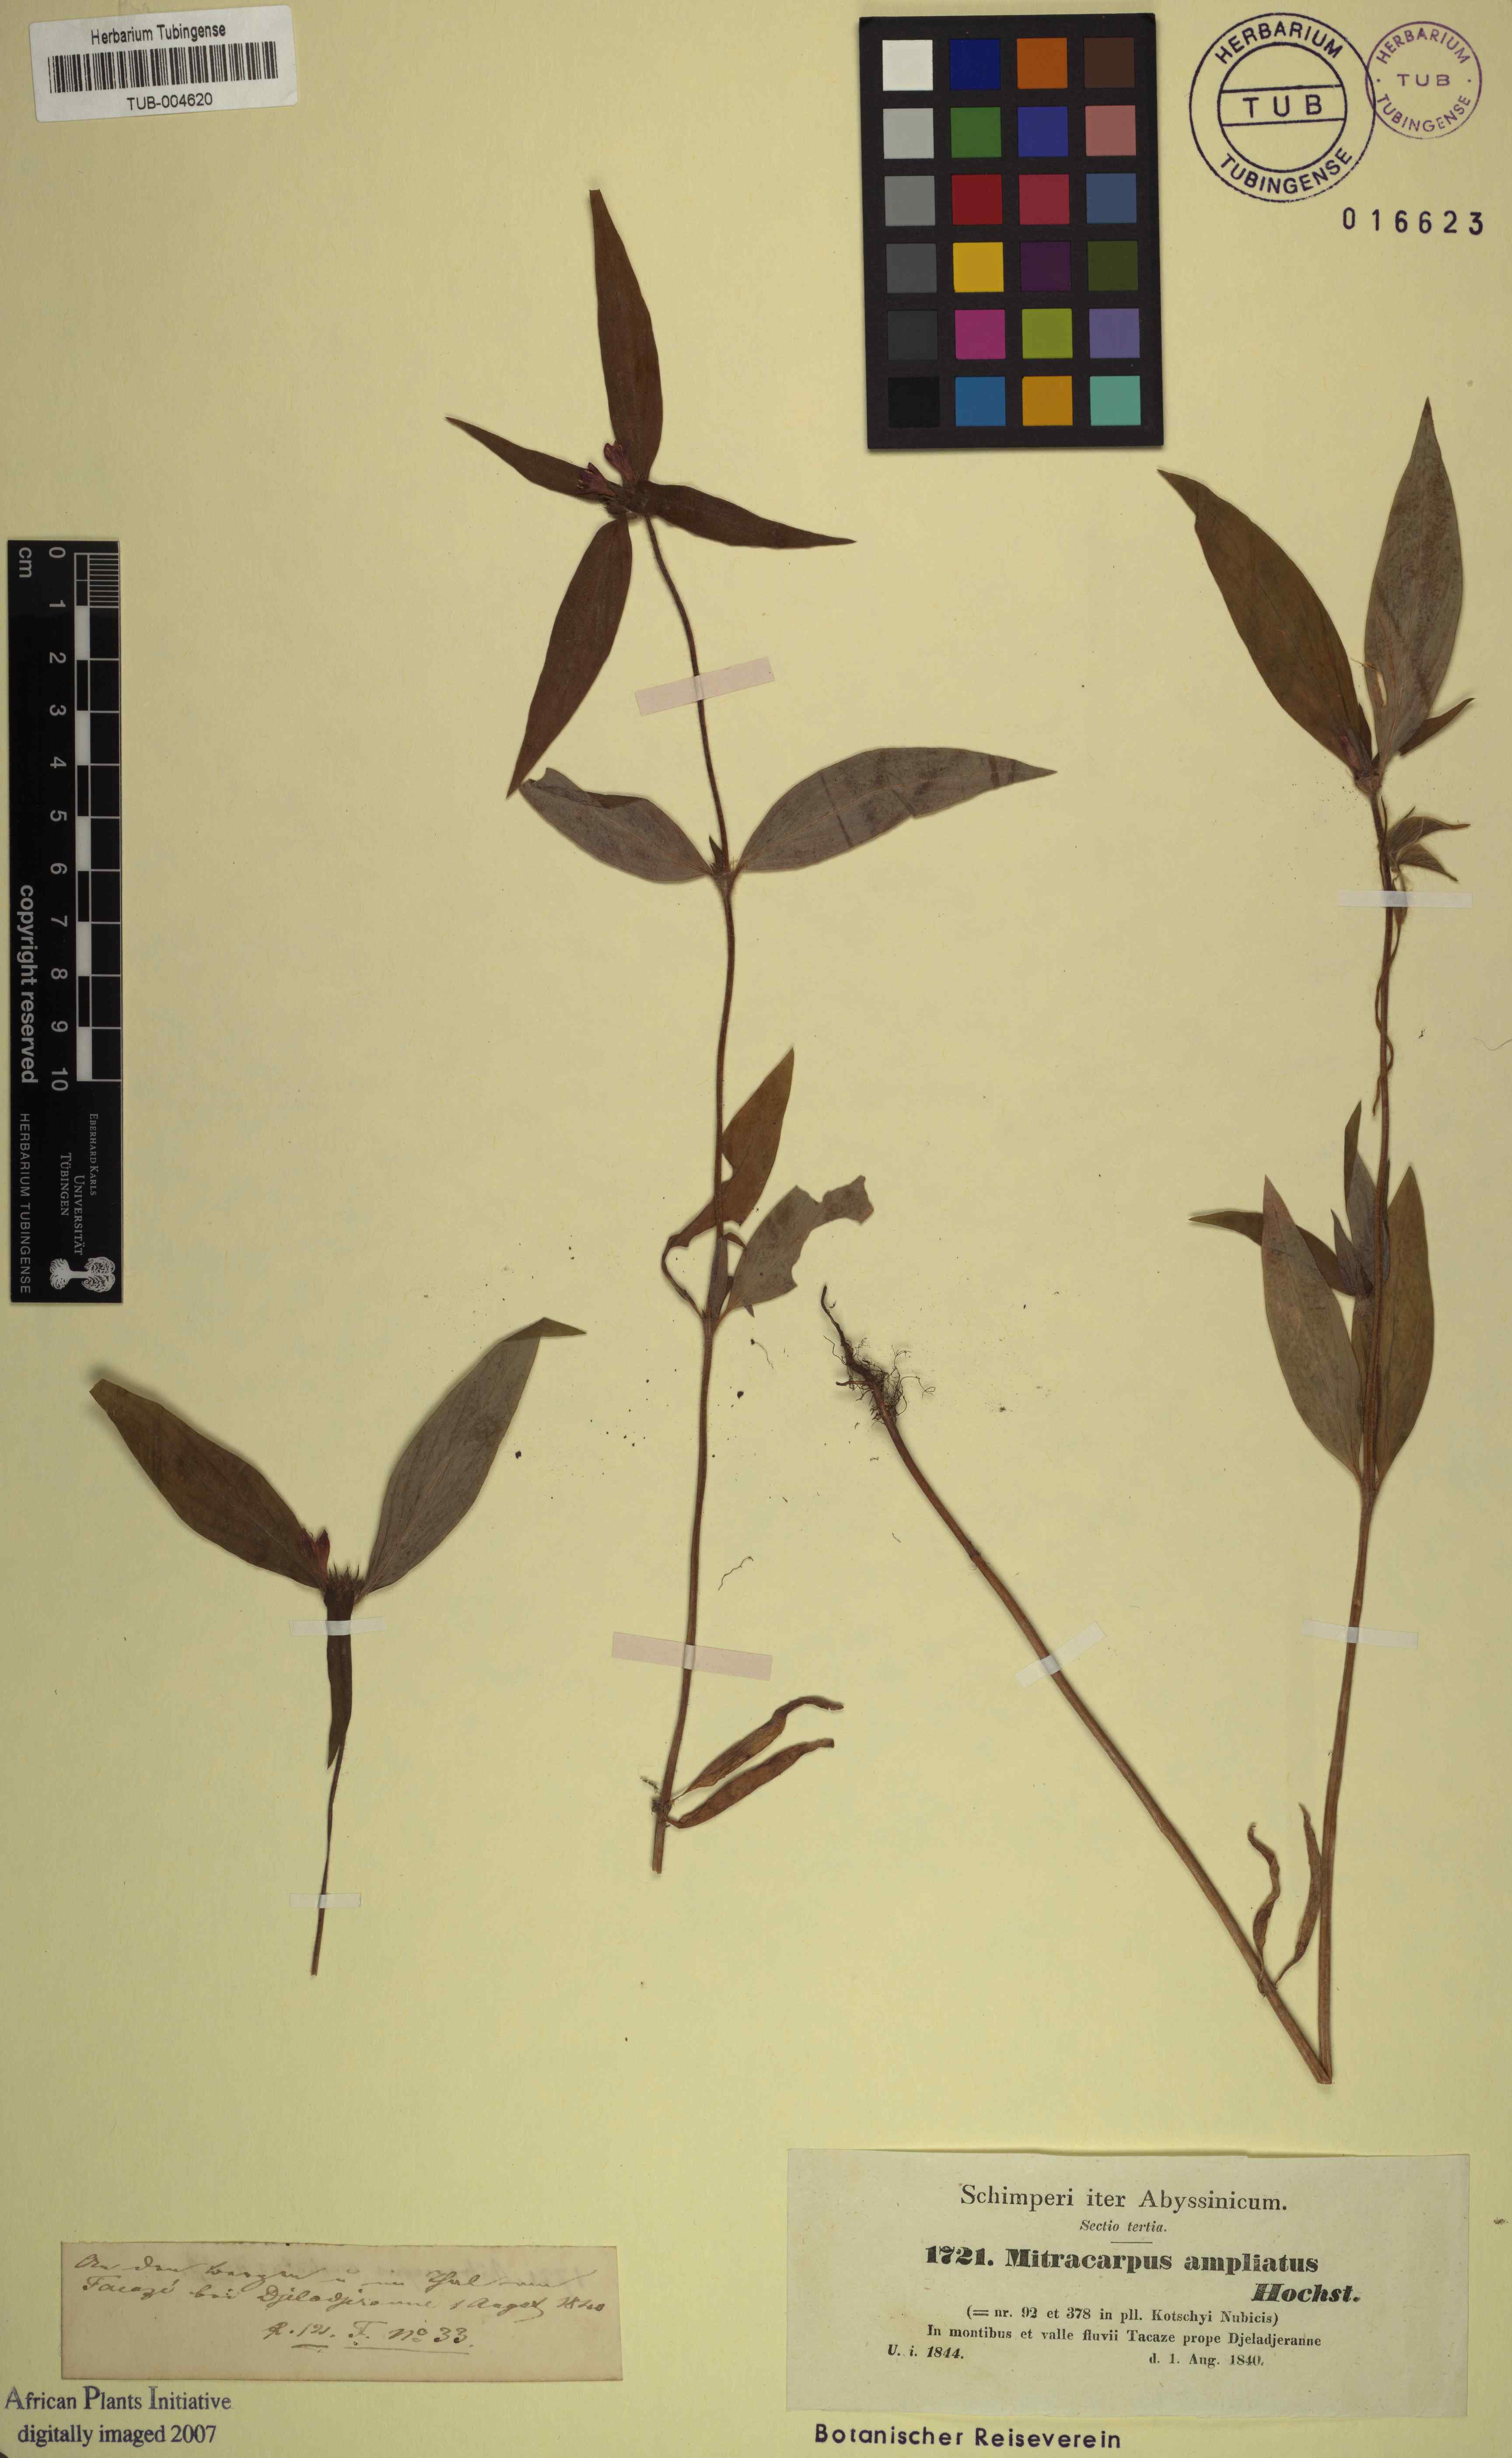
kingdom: Plantae
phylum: Tracheophyta
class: Magnoliopsida
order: Gentianales
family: Rubiaceae
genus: Spermacoce
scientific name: Spermacoce sphaerostigma
